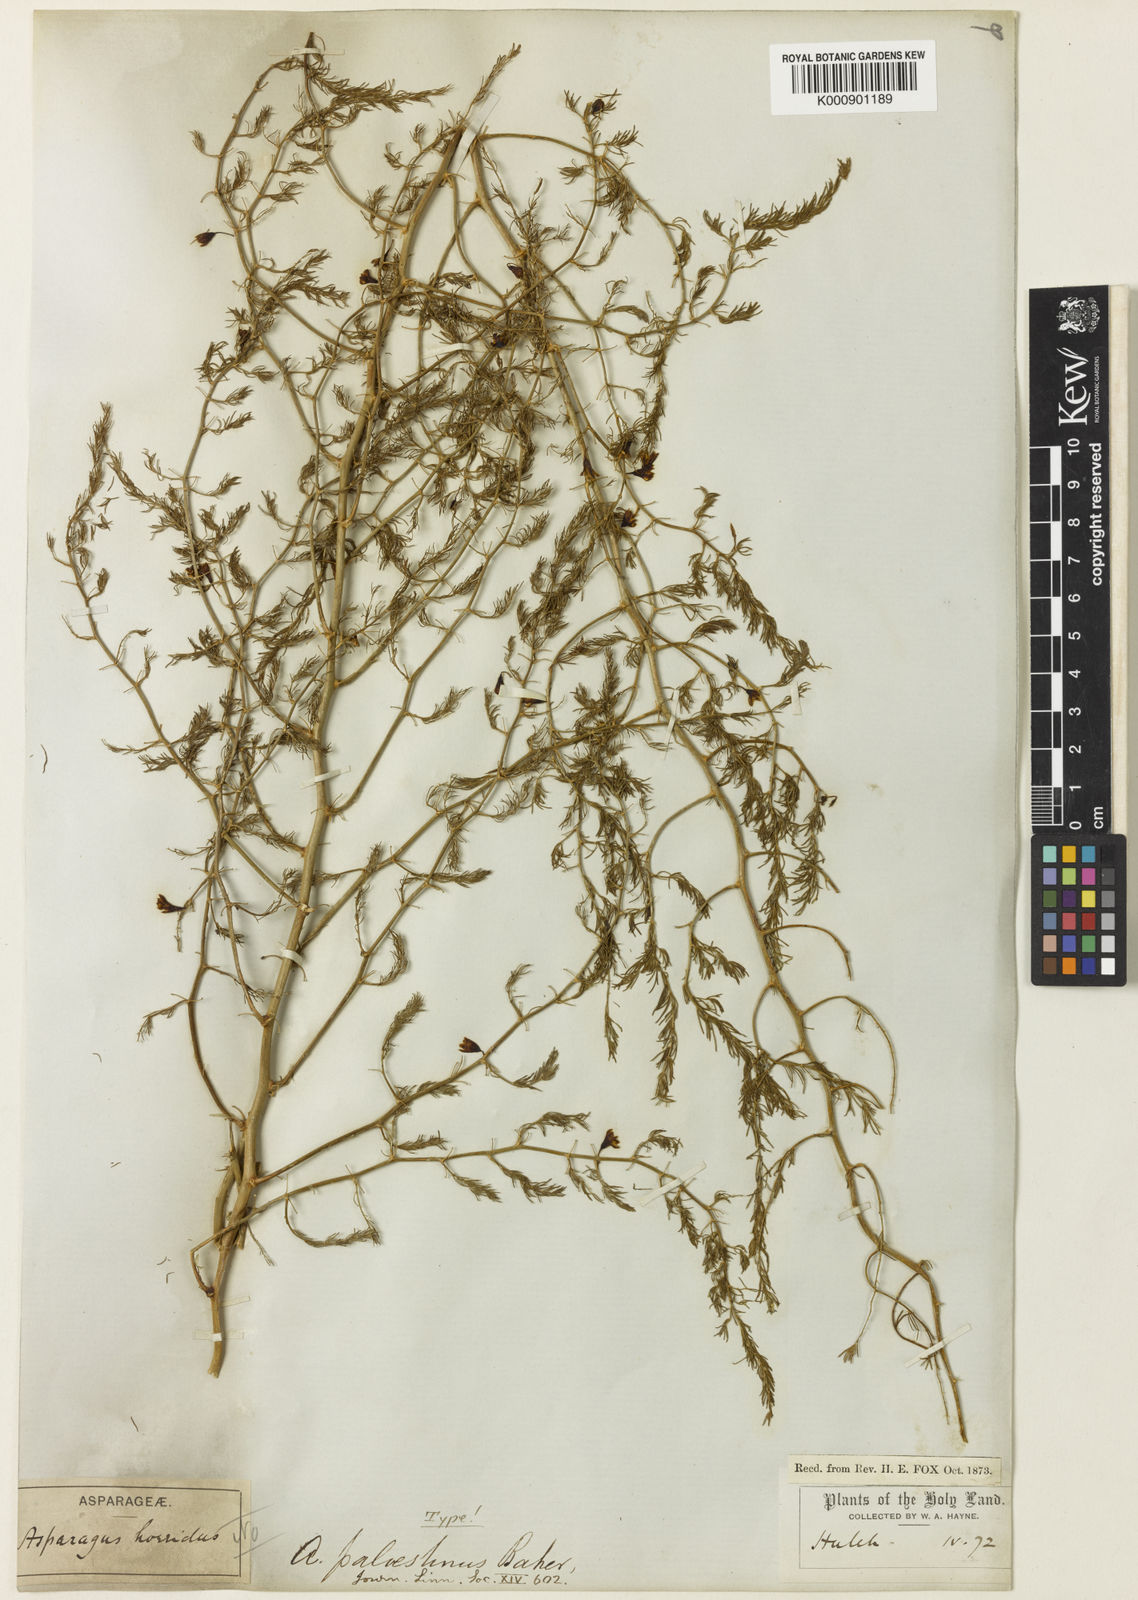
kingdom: Plantae
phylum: Tracheophyta
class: Liliopsida
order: Asparagales
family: Asparagaceae
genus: Asparagus
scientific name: Asparagus palaestinus
